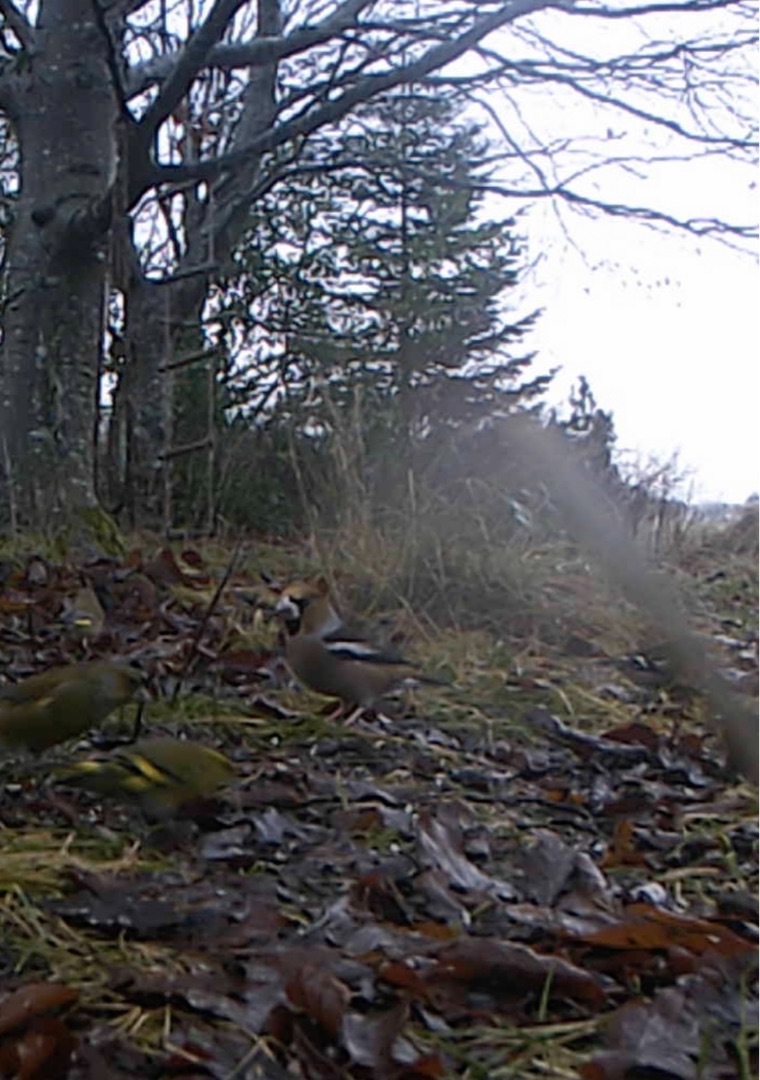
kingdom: Animalia
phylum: Chordata
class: Aves
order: Passeriformes
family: Fringillidae
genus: Coccothraustes
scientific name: Coccothraustes coccothraustes
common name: Kernebider
